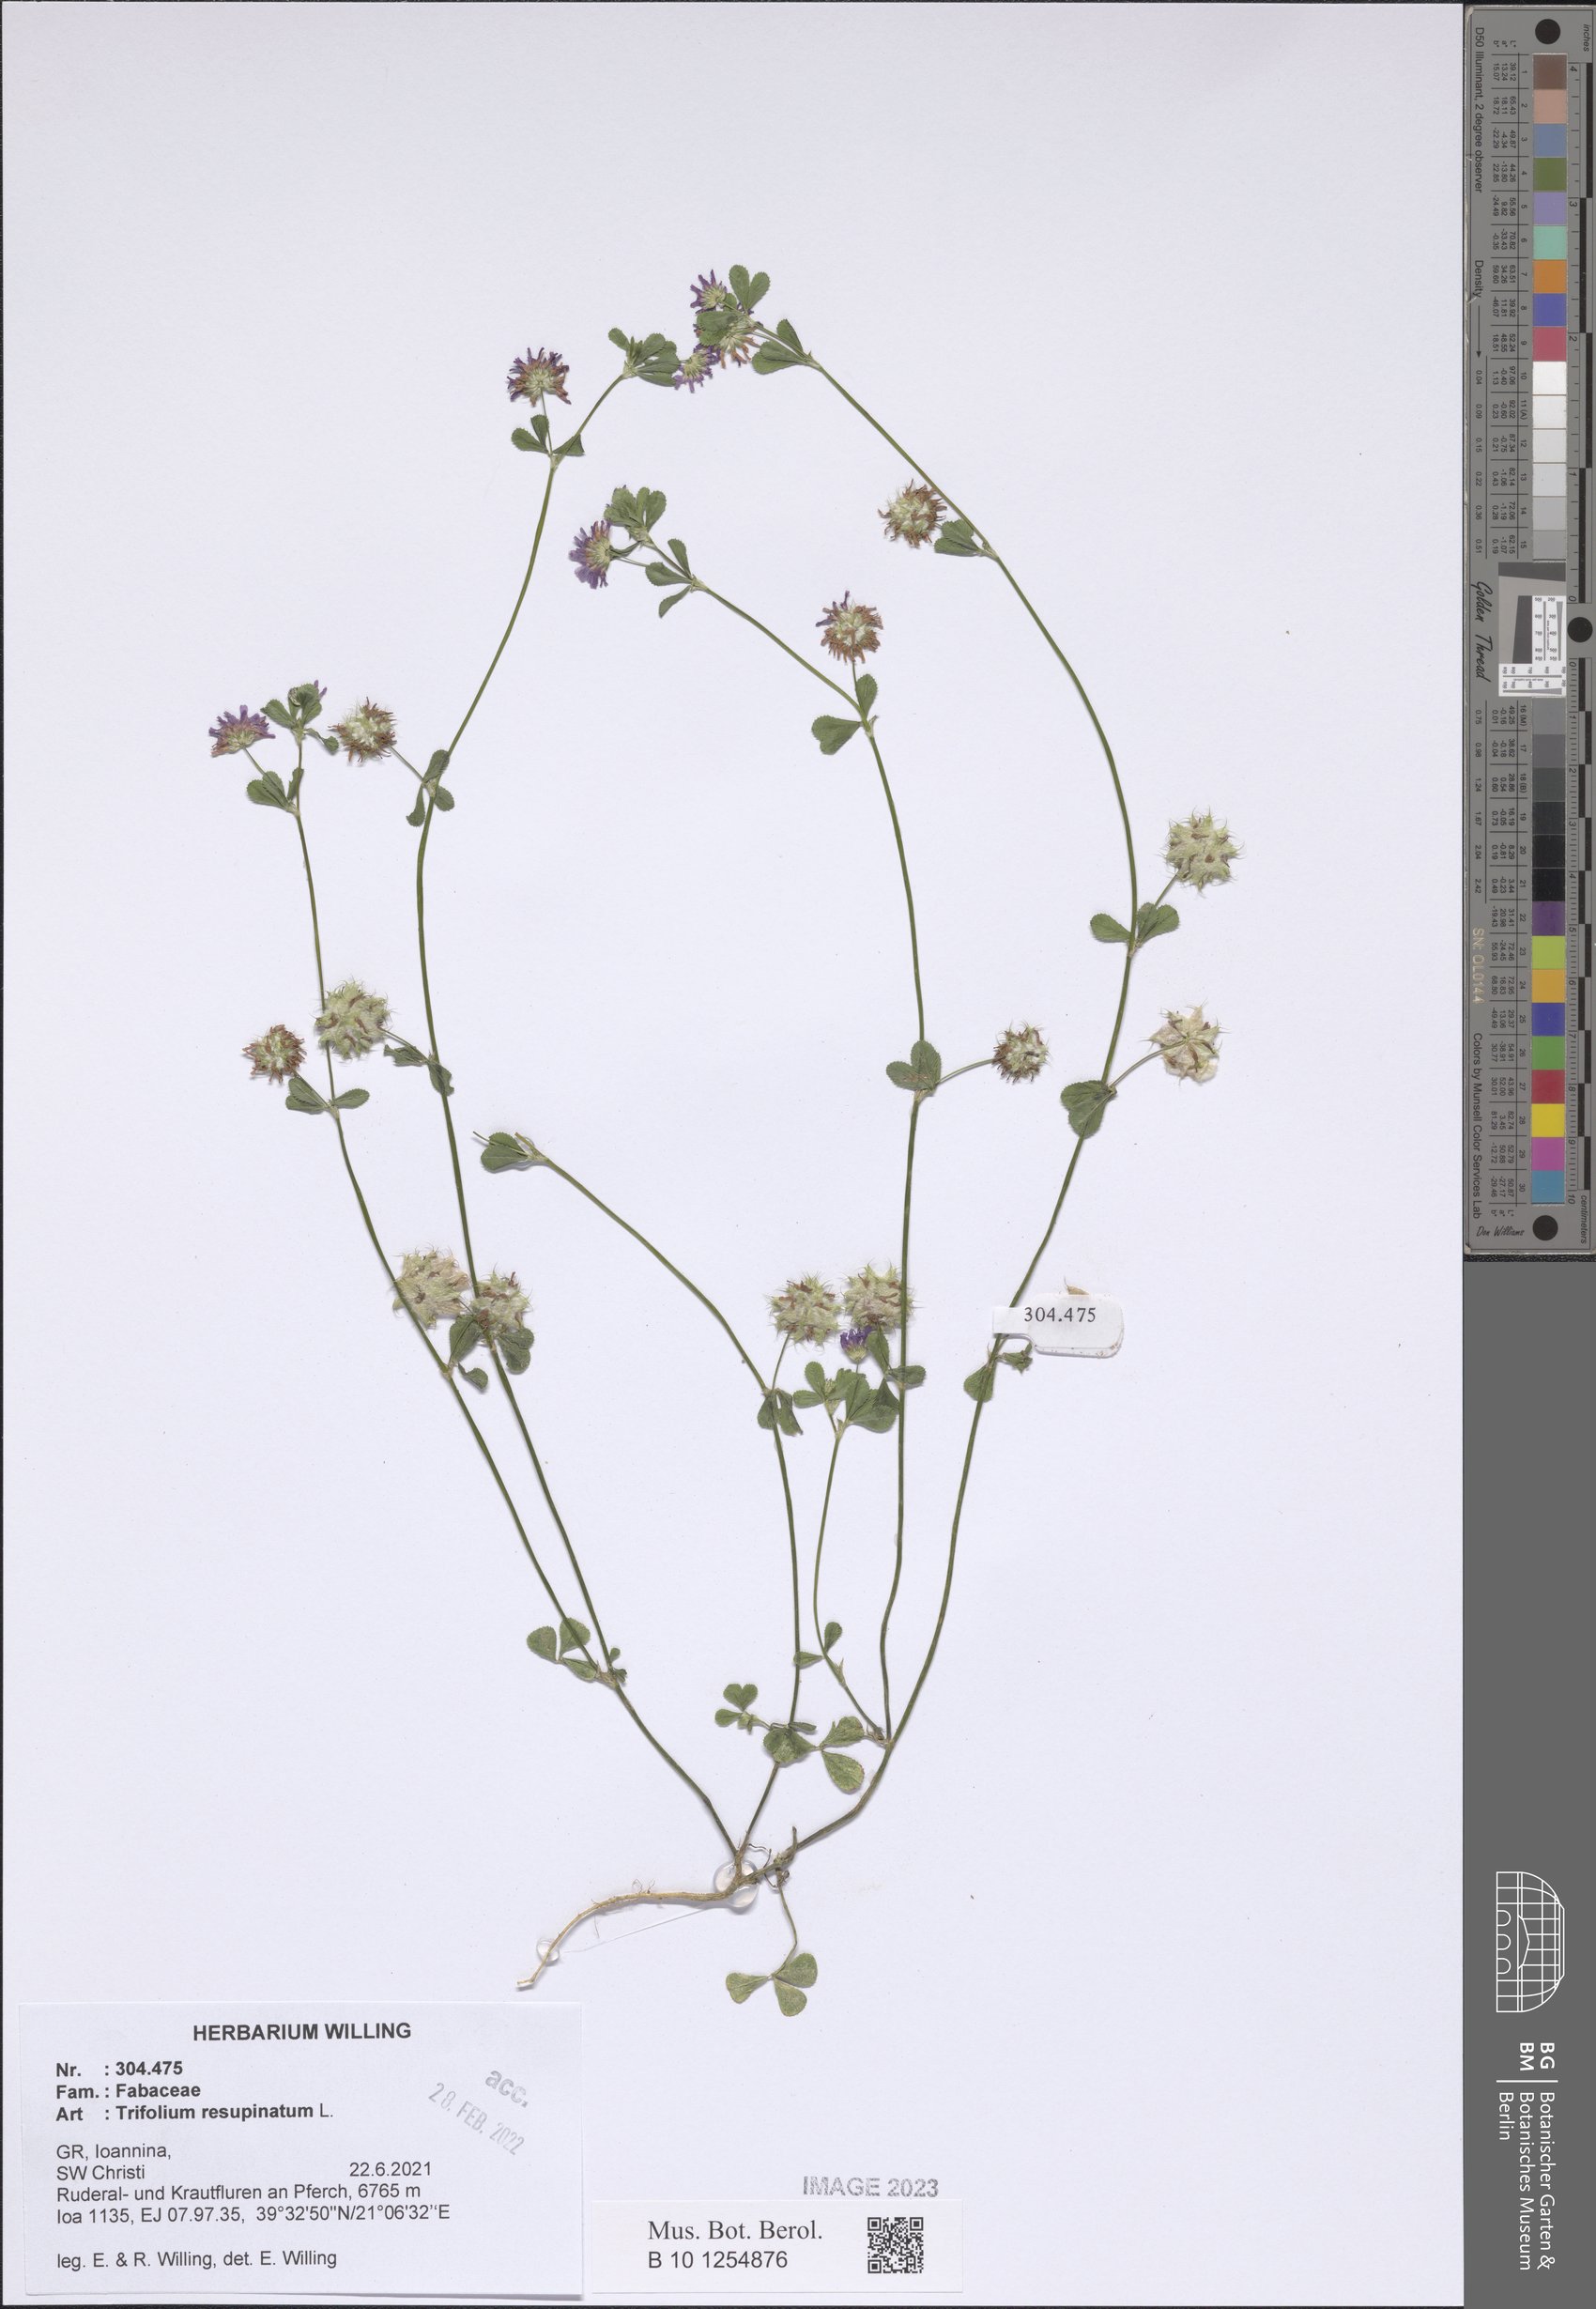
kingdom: Plantae
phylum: Tracheophyta
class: Magnoliopsida
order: Fabales
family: Fabaceae
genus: Trifolium
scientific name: Trifolium resupinatum
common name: Reversed clover
